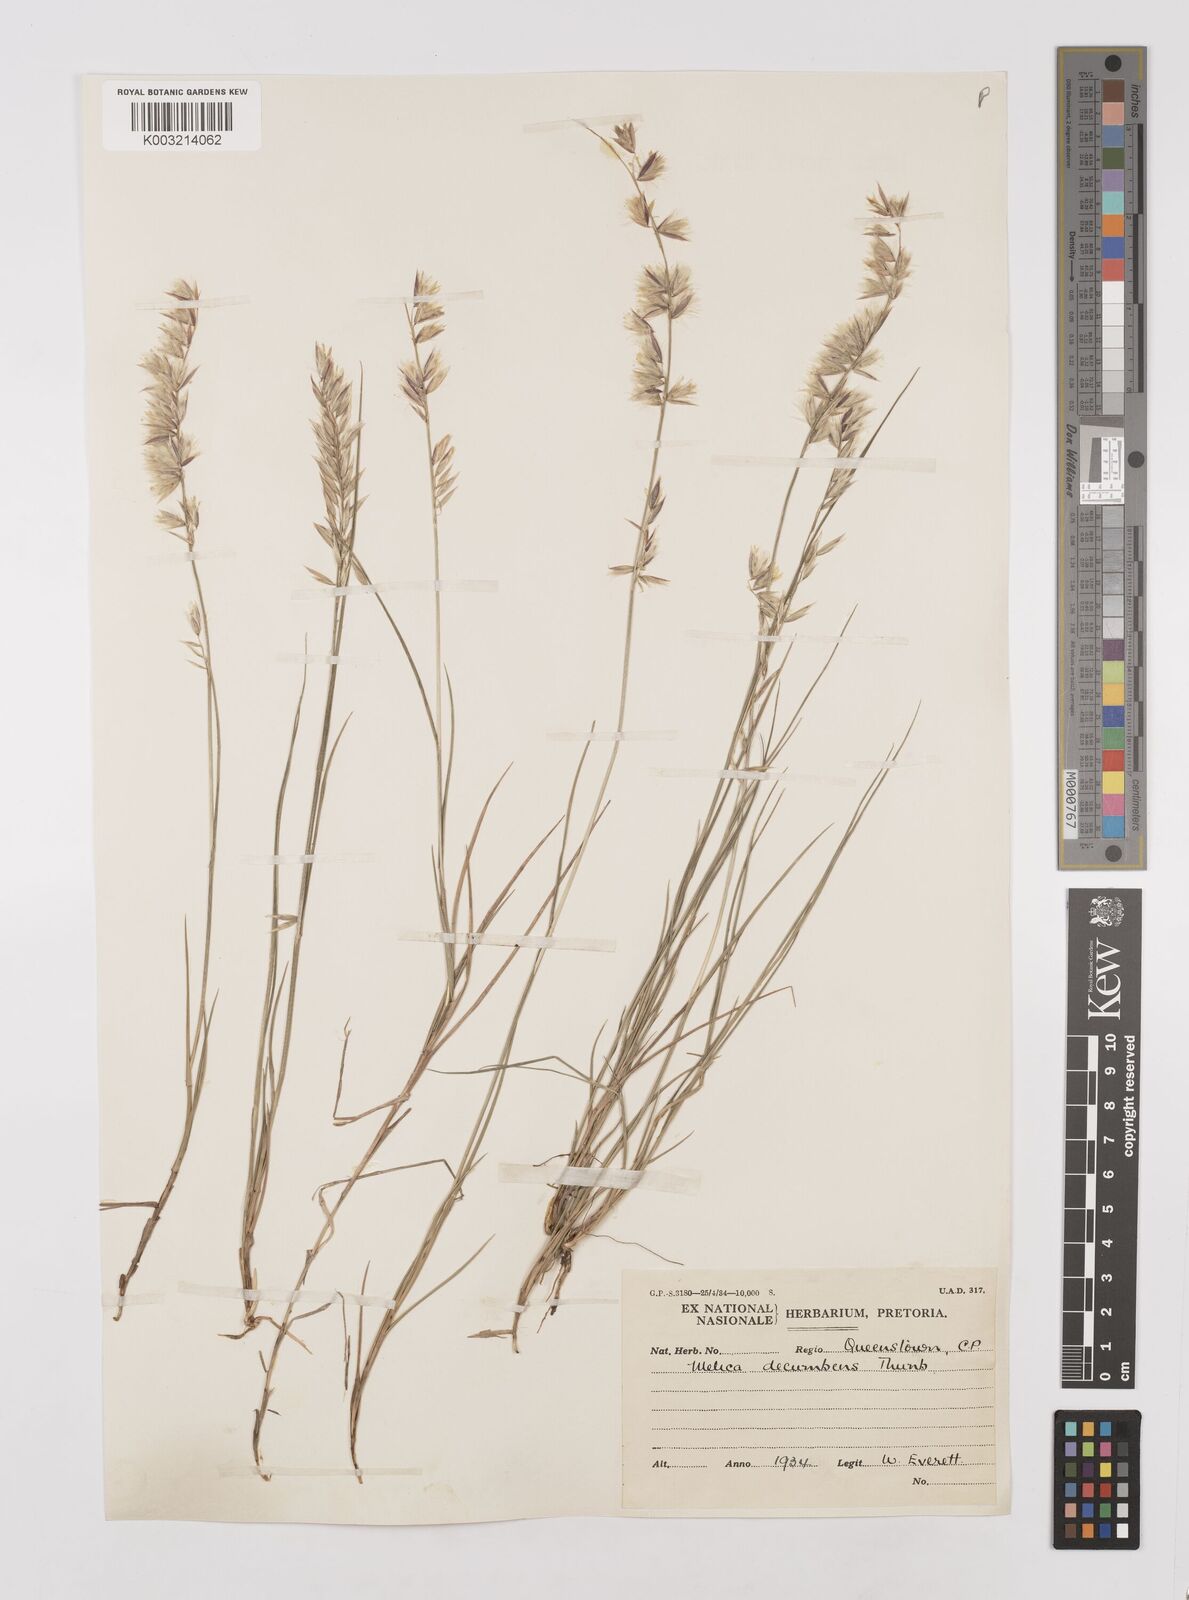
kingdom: Plantae
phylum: Tracheophyta
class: Liliopsida
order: Poales
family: Poaceae
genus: Melica
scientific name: Melica dendroides
